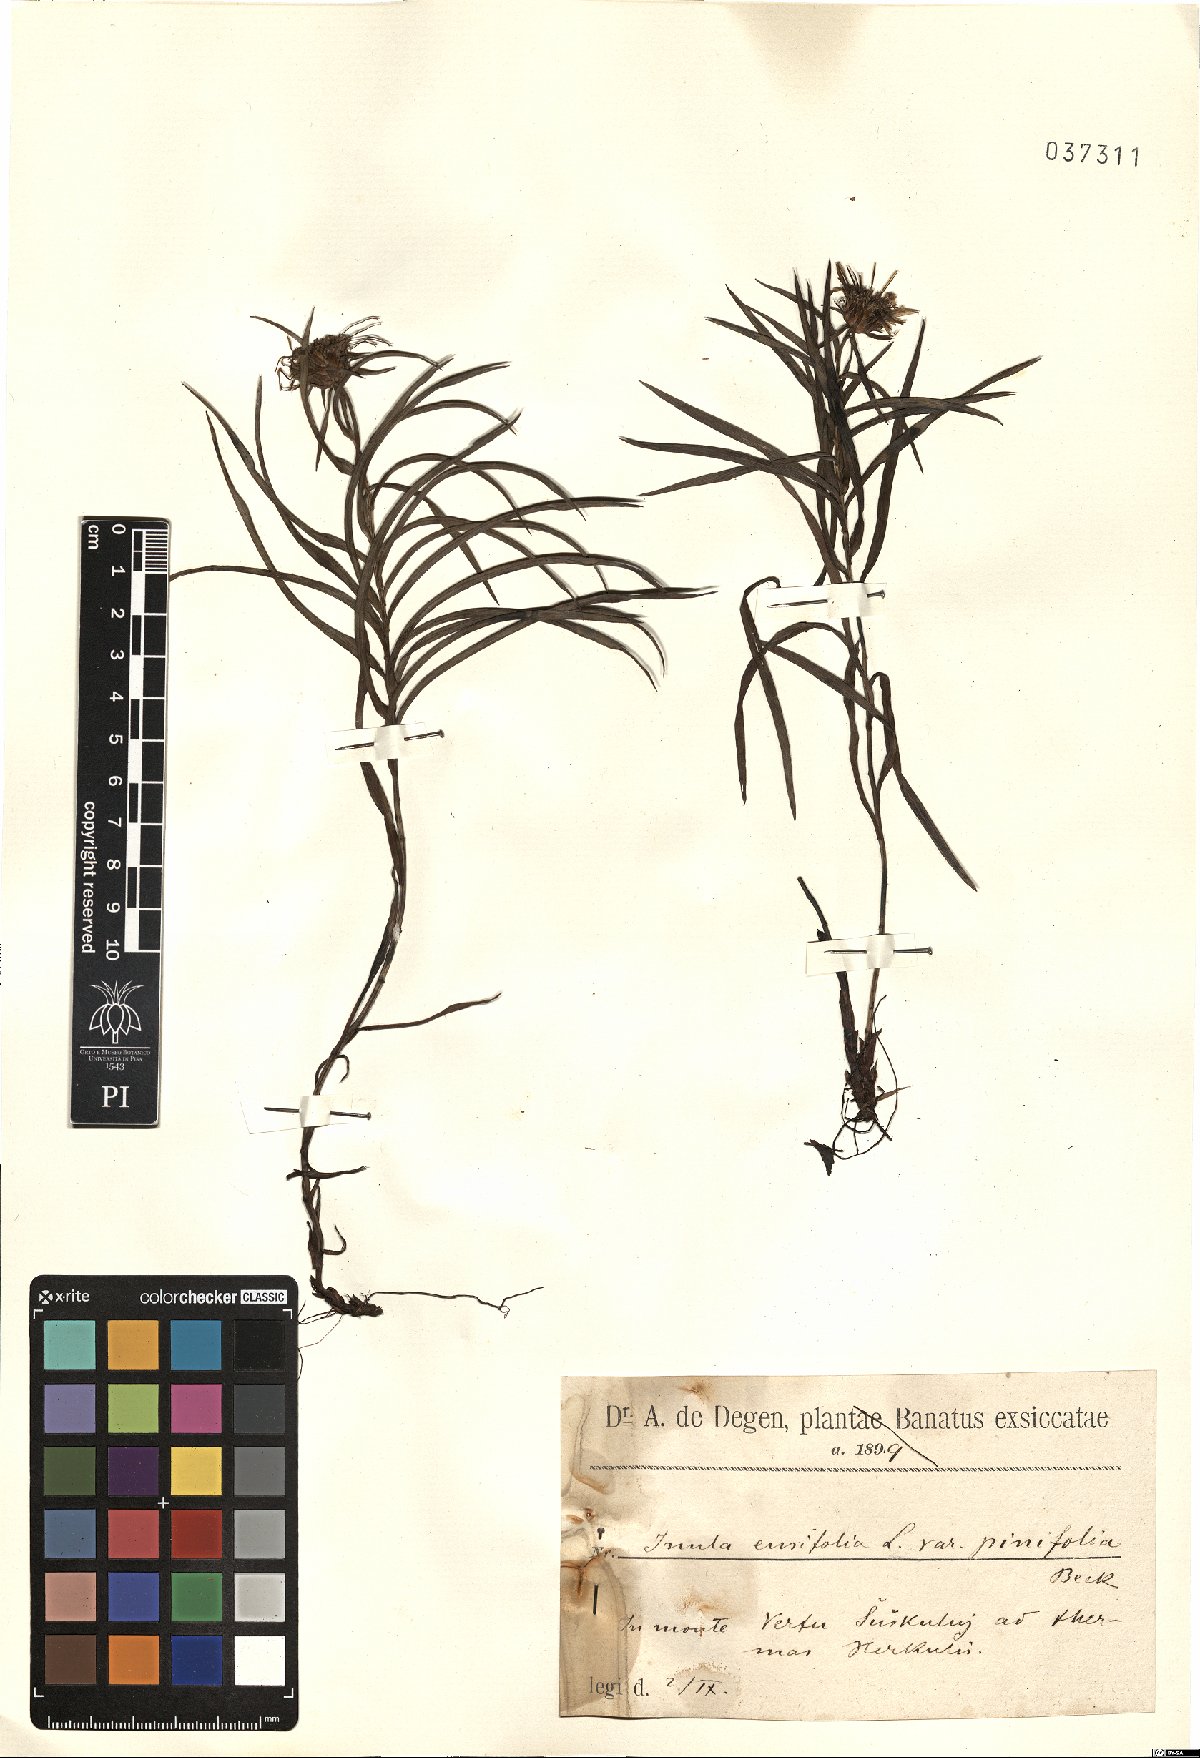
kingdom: Plantae
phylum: Tracheophyta
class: Magnoliopsida
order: Asterales
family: Asteraceae
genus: Pentanema
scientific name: Pentanema ensifolium
